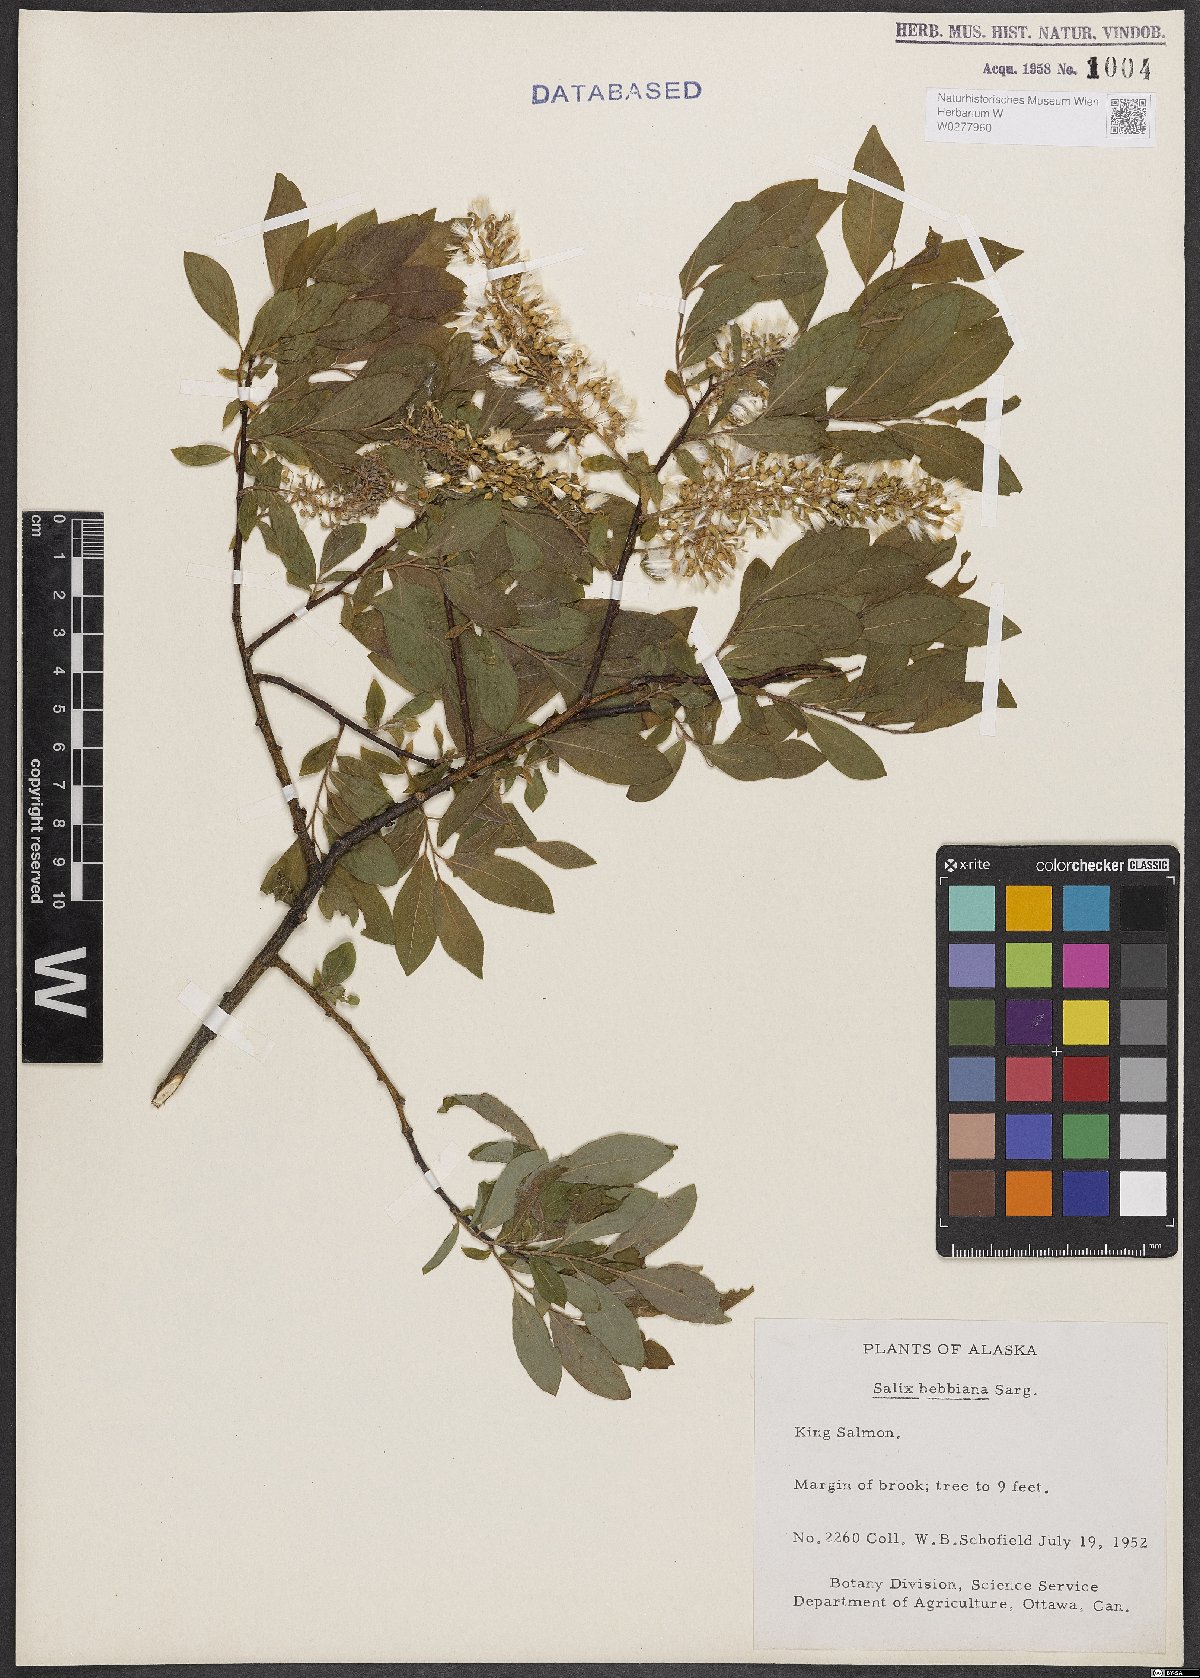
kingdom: Plantae
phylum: Tracheophyta
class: Magnoliopsida
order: Malpighiales
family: Salicaceae
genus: Salix
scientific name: Salix bebbiana
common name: Bebb's willow
